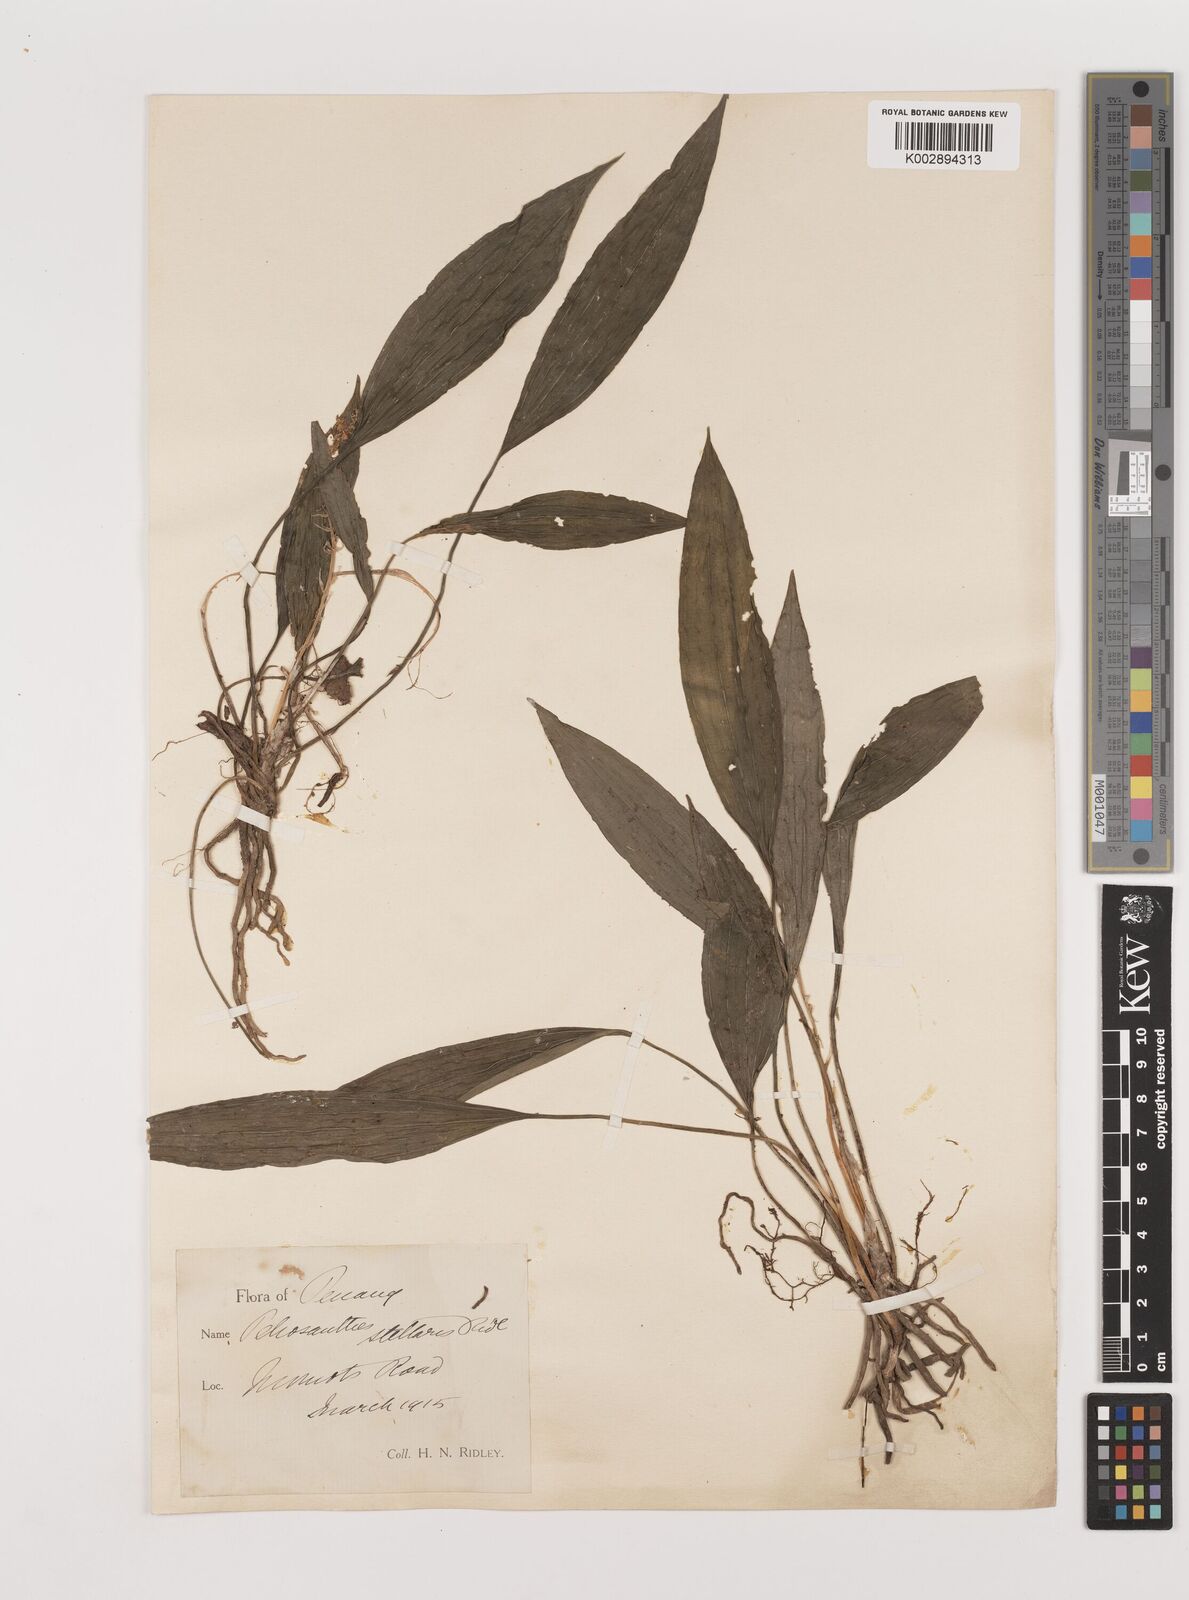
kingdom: Plantae
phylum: Tracheophyta
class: Liliopsida
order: Asparagales
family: Asparagaceae
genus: Peliosanthes
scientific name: Peliosanthes teta
